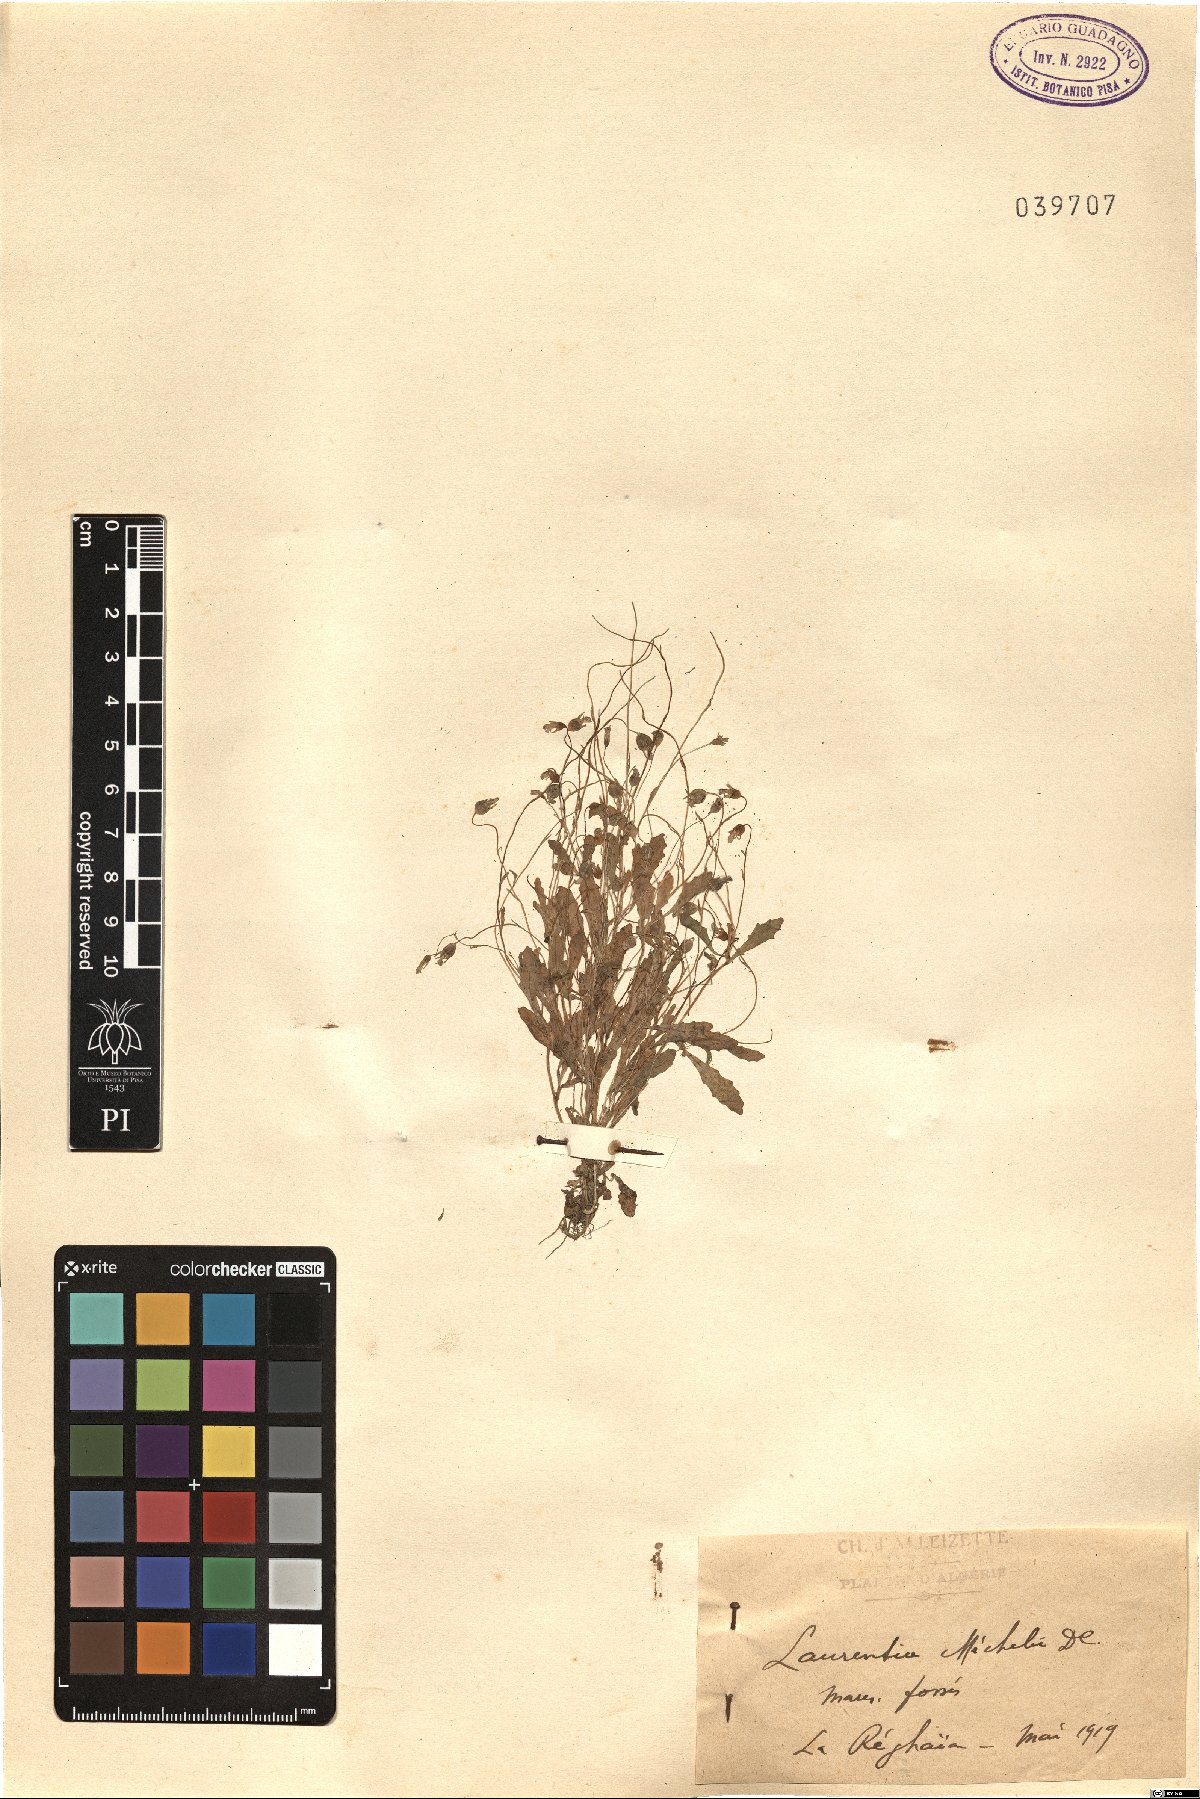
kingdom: Plantae
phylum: Tracheophyta
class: Magnoliopsida
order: Asterales
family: Campanulaceae
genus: Solenopsis
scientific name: Solenopsis laurentia
